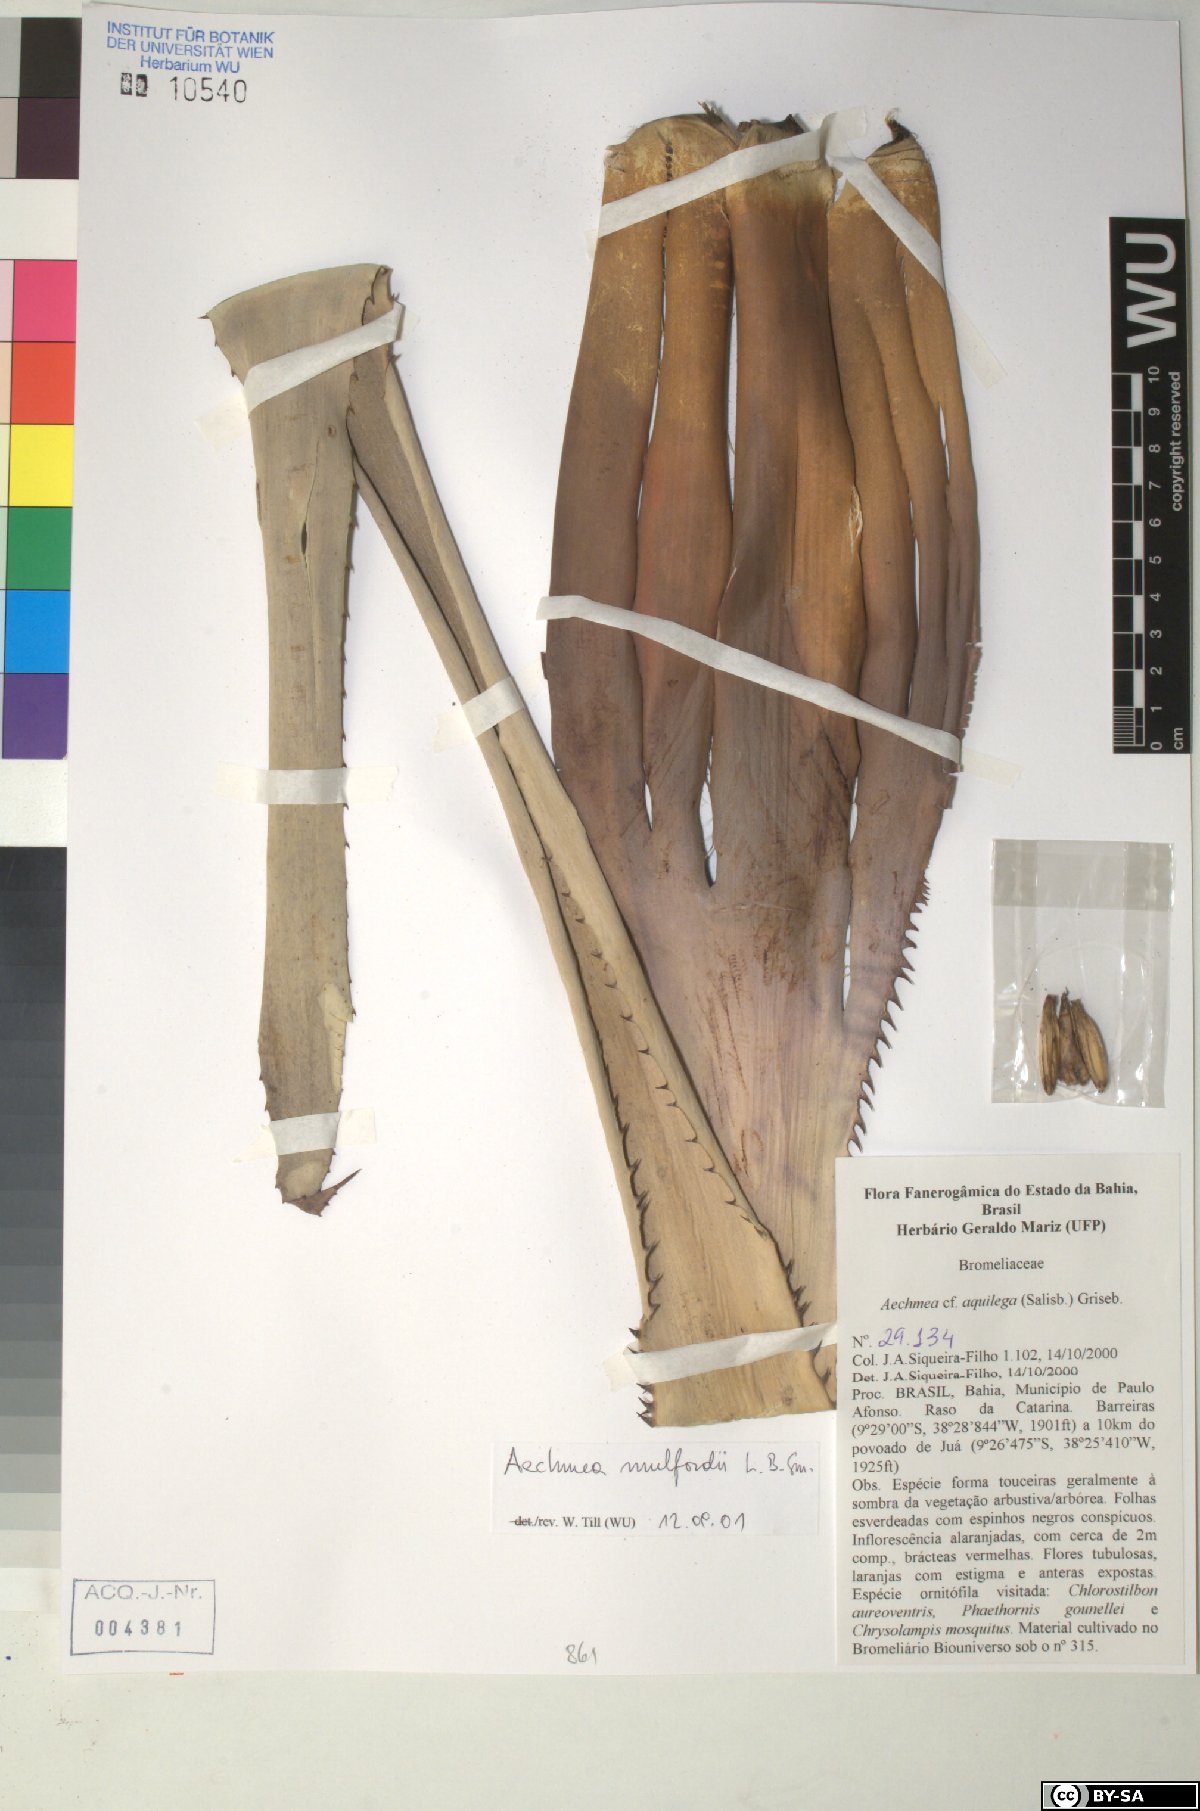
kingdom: Plantae
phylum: Tracheophyta
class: Liliopsida
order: Poales
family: Bromeliaceae
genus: Aechmea
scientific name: Aechmea aquilega
